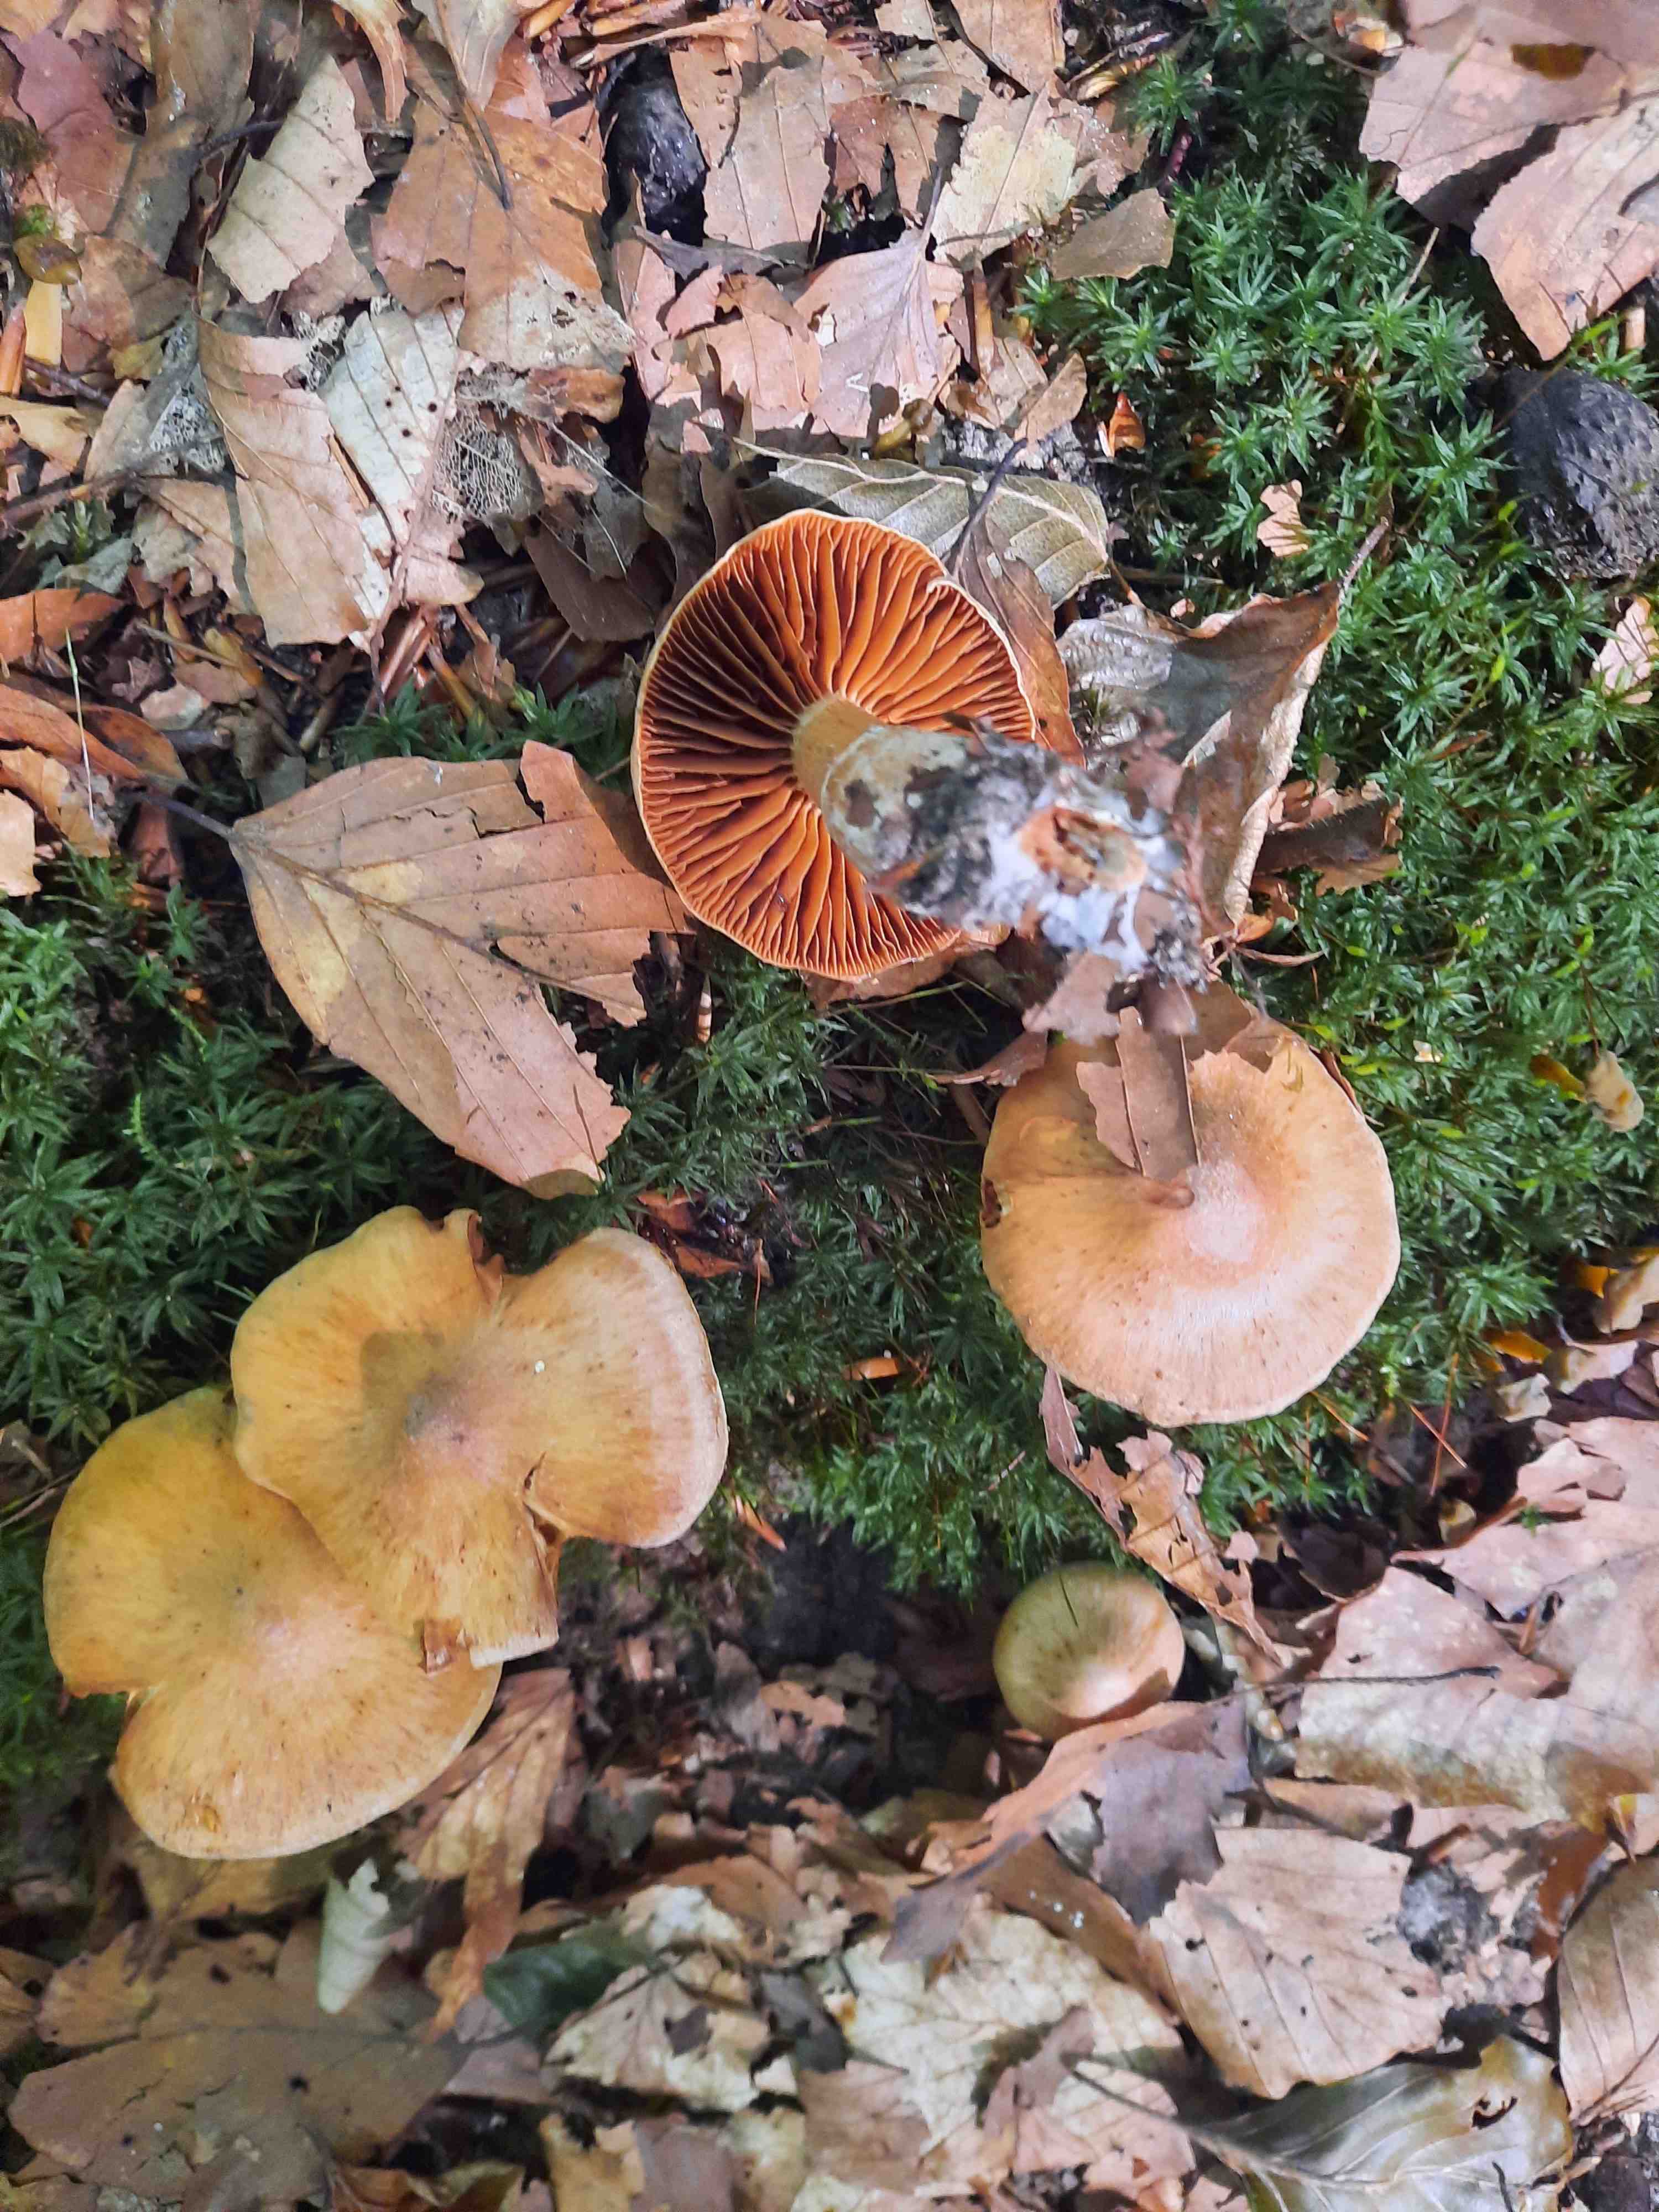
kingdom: Fungi
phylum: Basidiomycota
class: Agaricomycetes
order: Agaricales
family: Cortinariaceae
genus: Cortinarius
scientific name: Cortinarius
